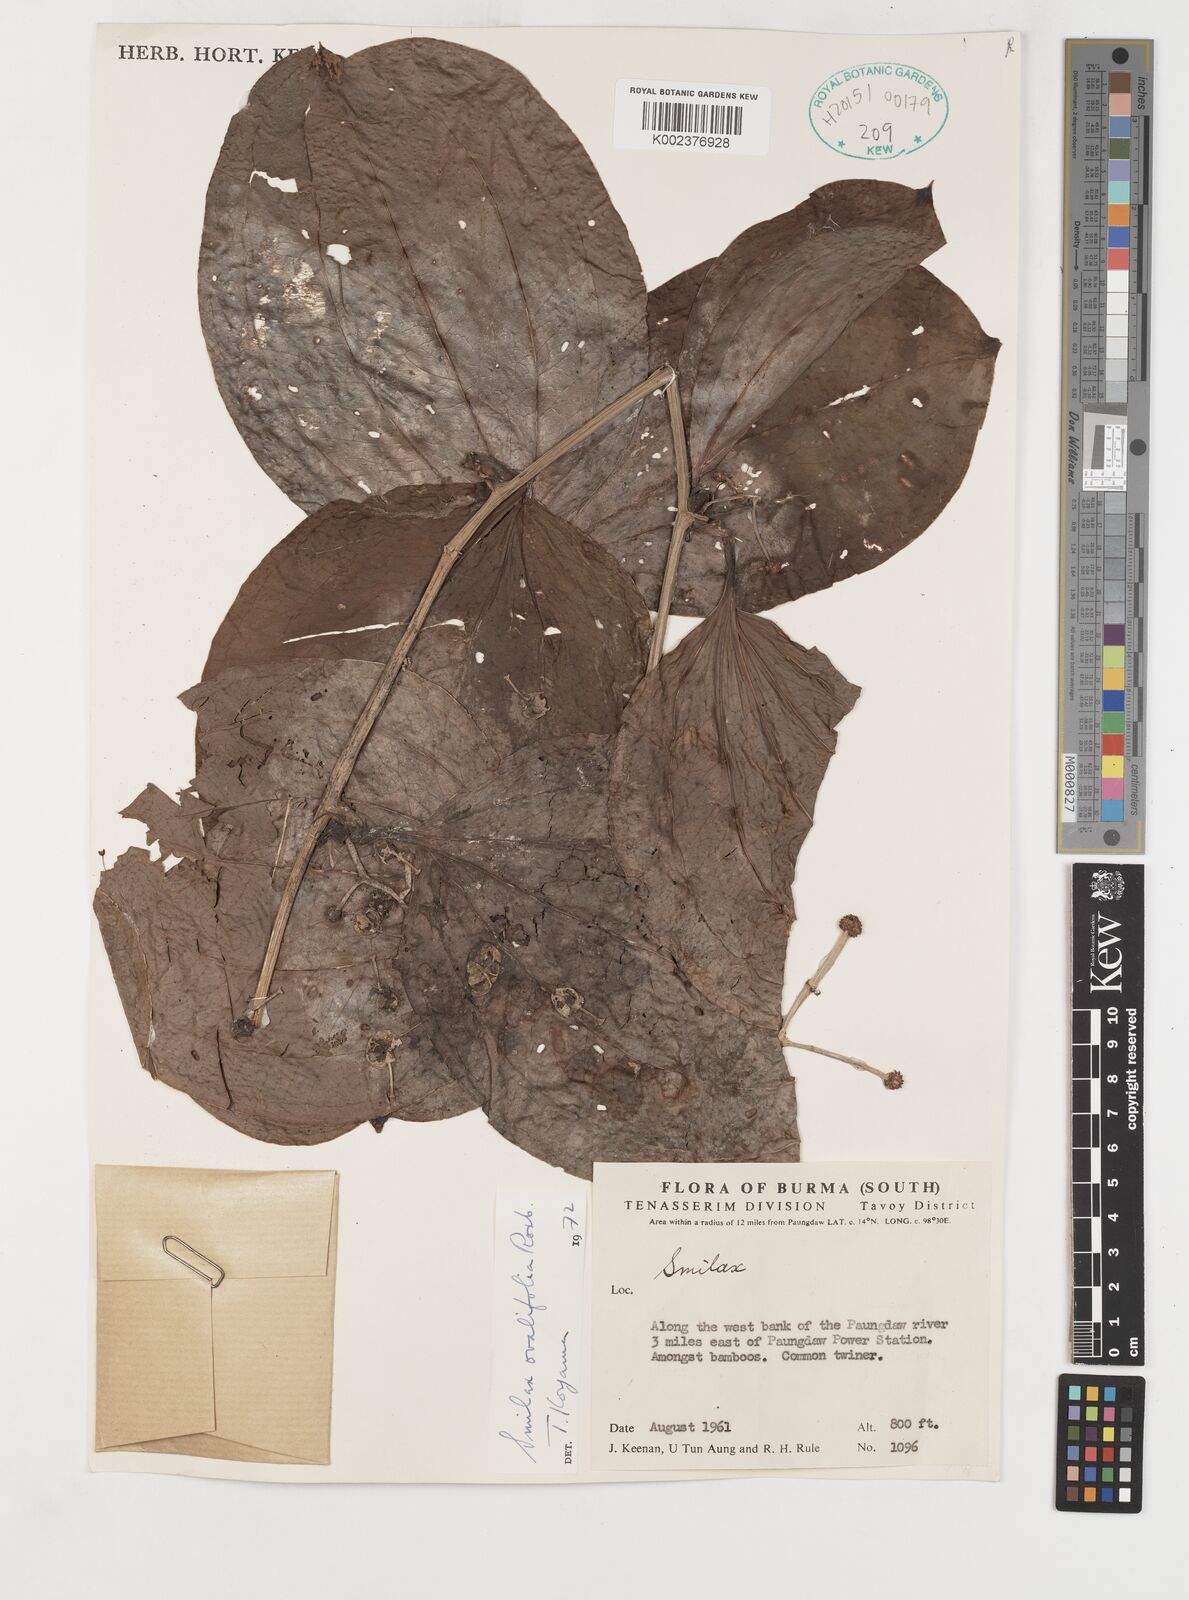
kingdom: Plantae
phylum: Tracheophyta
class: Liliopsida
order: Liliales
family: Smilacaceae
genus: Smilax
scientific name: Smilax ovalifolia
